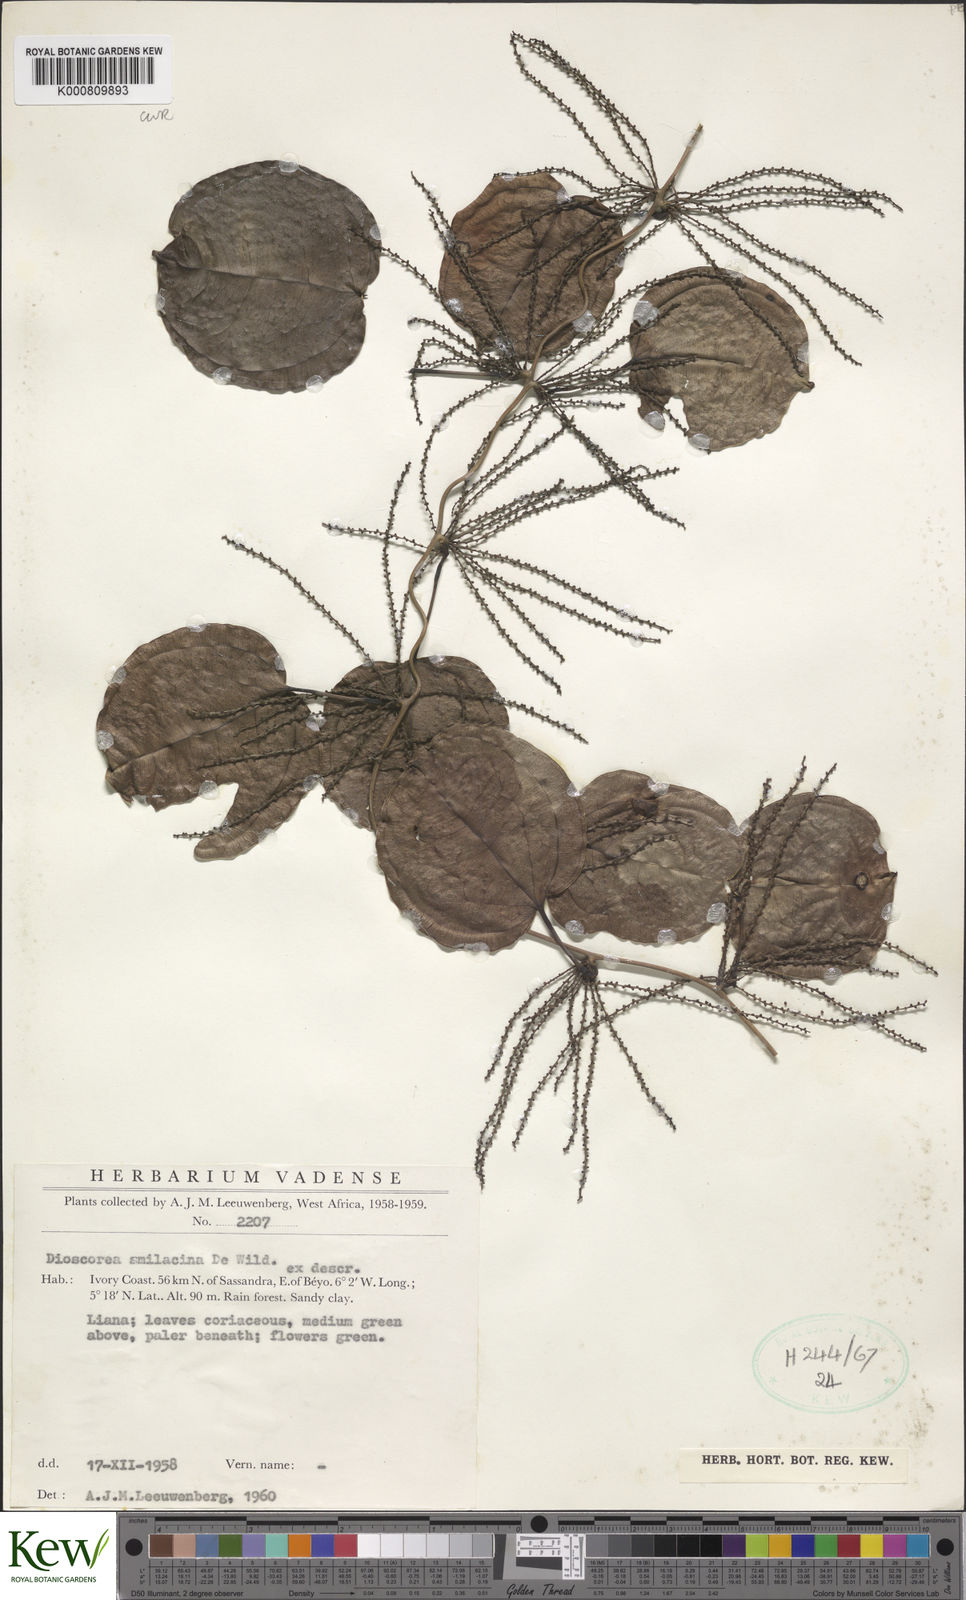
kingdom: Plantae
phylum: Tracheophyta
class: Liliopsida
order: Dioscoreales
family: Dioscoreaceae
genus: Dioscorea
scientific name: Dioscorea smilacifolia
